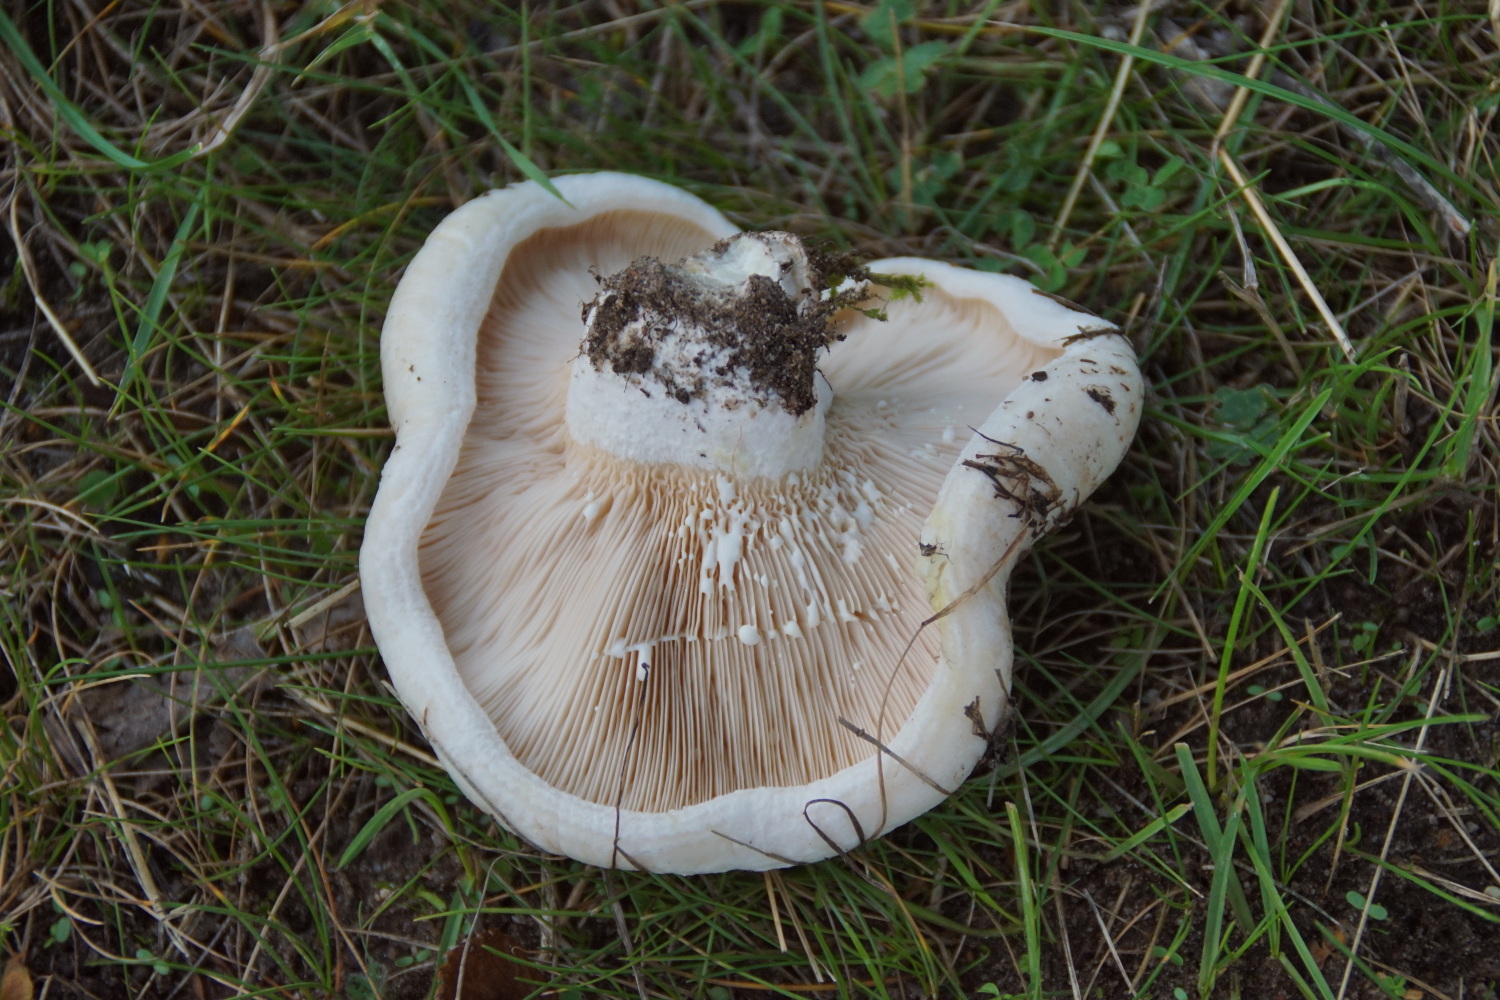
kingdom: Fungi
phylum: Basidiomycota
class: Agaricomycetes
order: Russulales
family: Russulaceae
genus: Lactifluus
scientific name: Lactifluus vellereus
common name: hvidfiltet mælkehat
